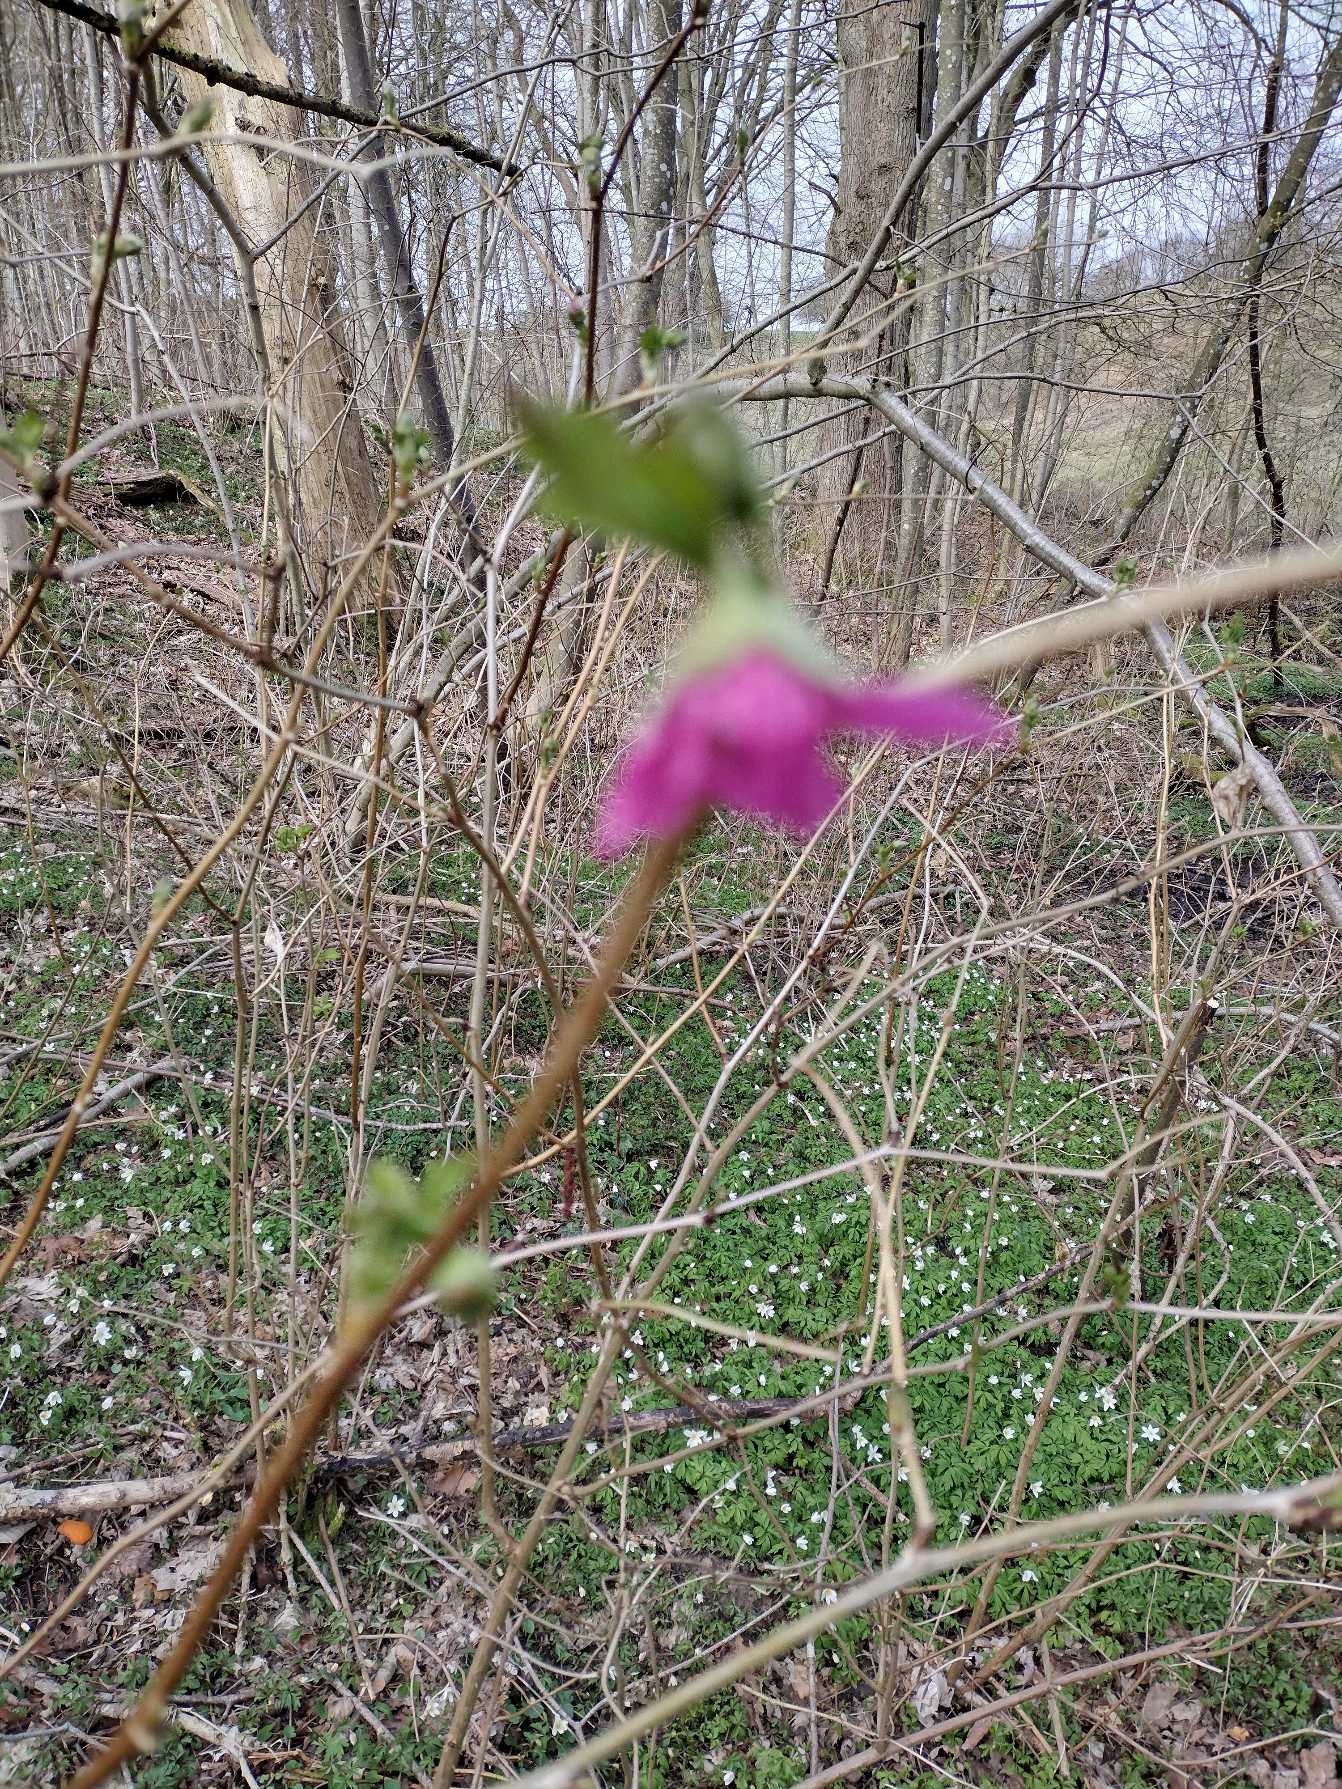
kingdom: Plantae
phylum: Tracheophyta
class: Magnoliopsida
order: Rosales
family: Rosaceae
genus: Rubus
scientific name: Rubus spectabilis
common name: Laksebær
